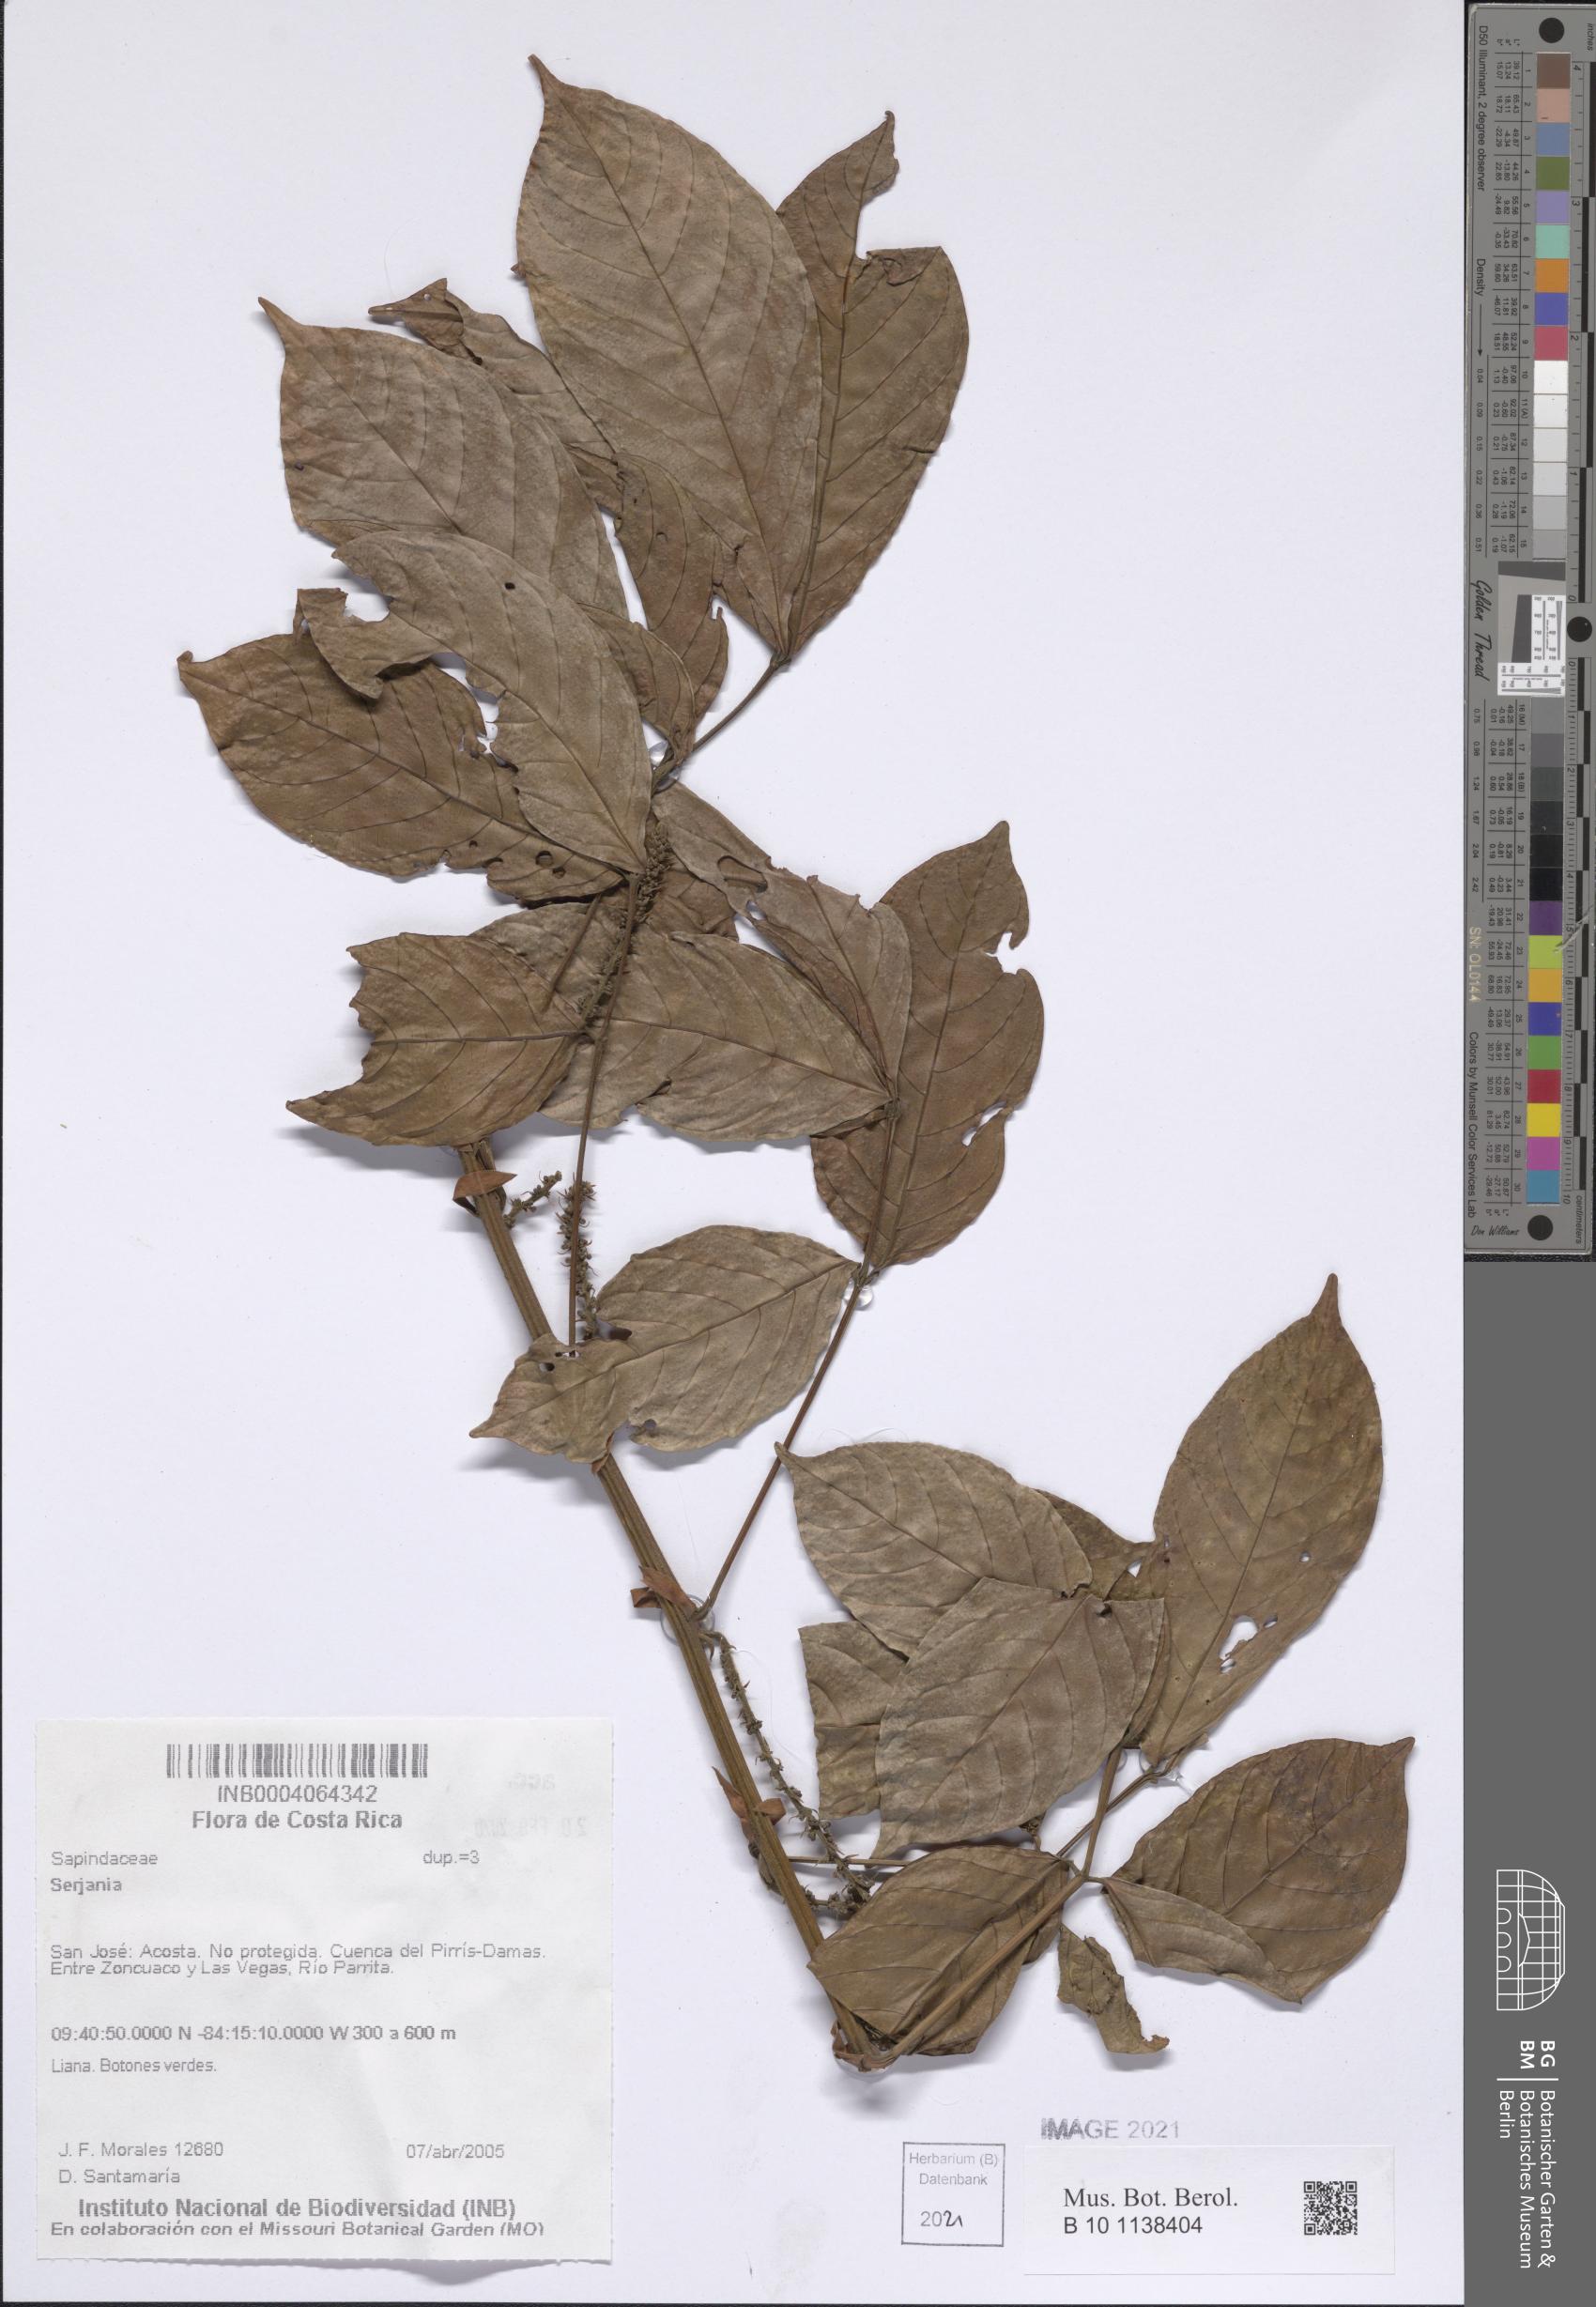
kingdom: Plantae
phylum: Tracheophyta
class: Magnoliopsida
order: Sapindales
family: Sapindaceae
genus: Serjania
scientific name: Serjania
